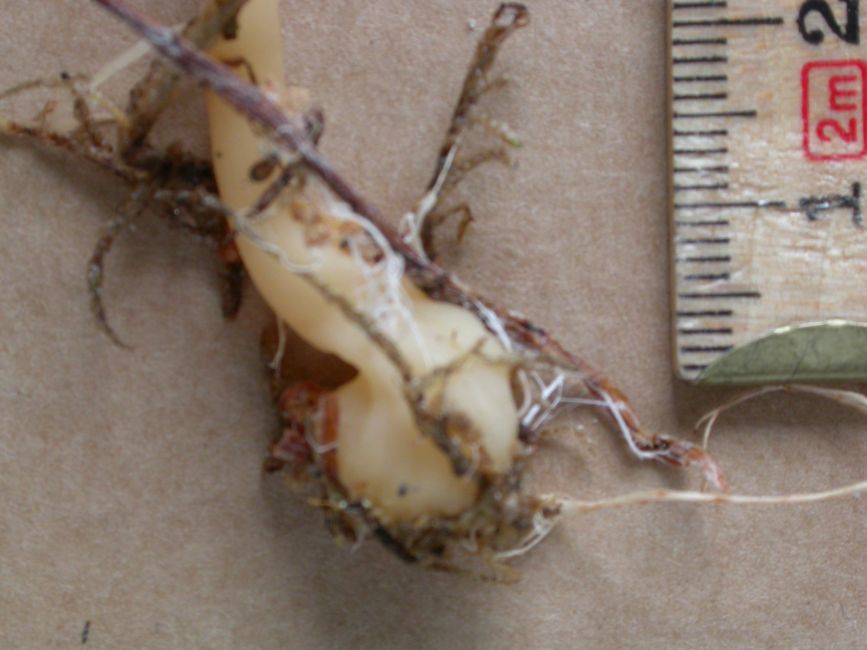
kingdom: Fungi
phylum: Basidiomycota
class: Agaricomycetes
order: Agaricales
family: Omphalotaceae
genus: Gymnopus
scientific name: Gymnopus aquosus
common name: bleg fladhat
